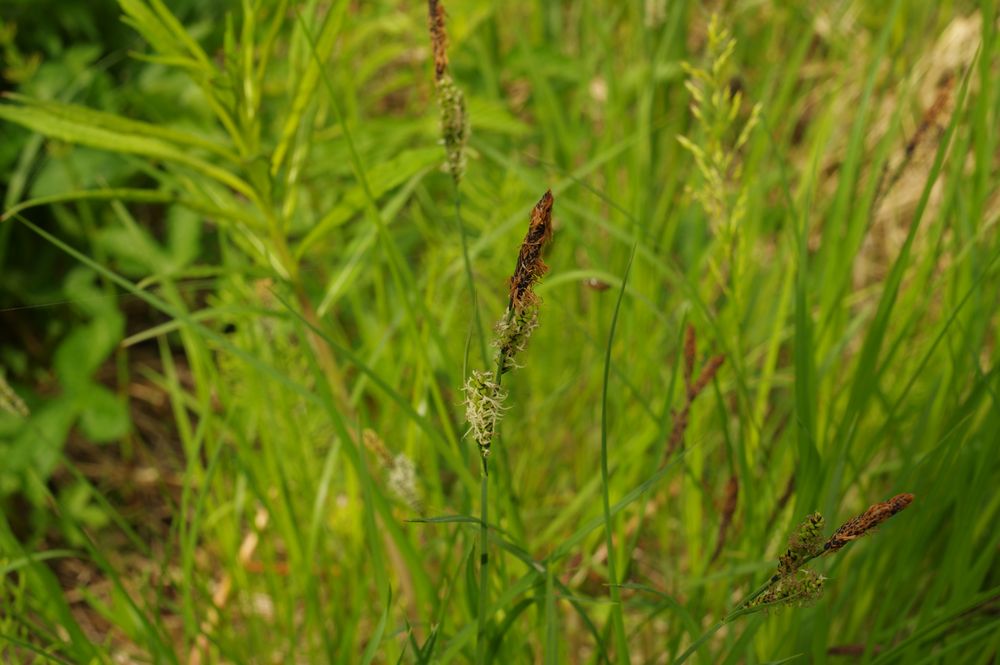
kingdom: Plantae
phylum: Tracheophyta
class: Liliopsida
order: Poales
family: Cyperaceae
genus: Carex
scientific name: Carex nigra
